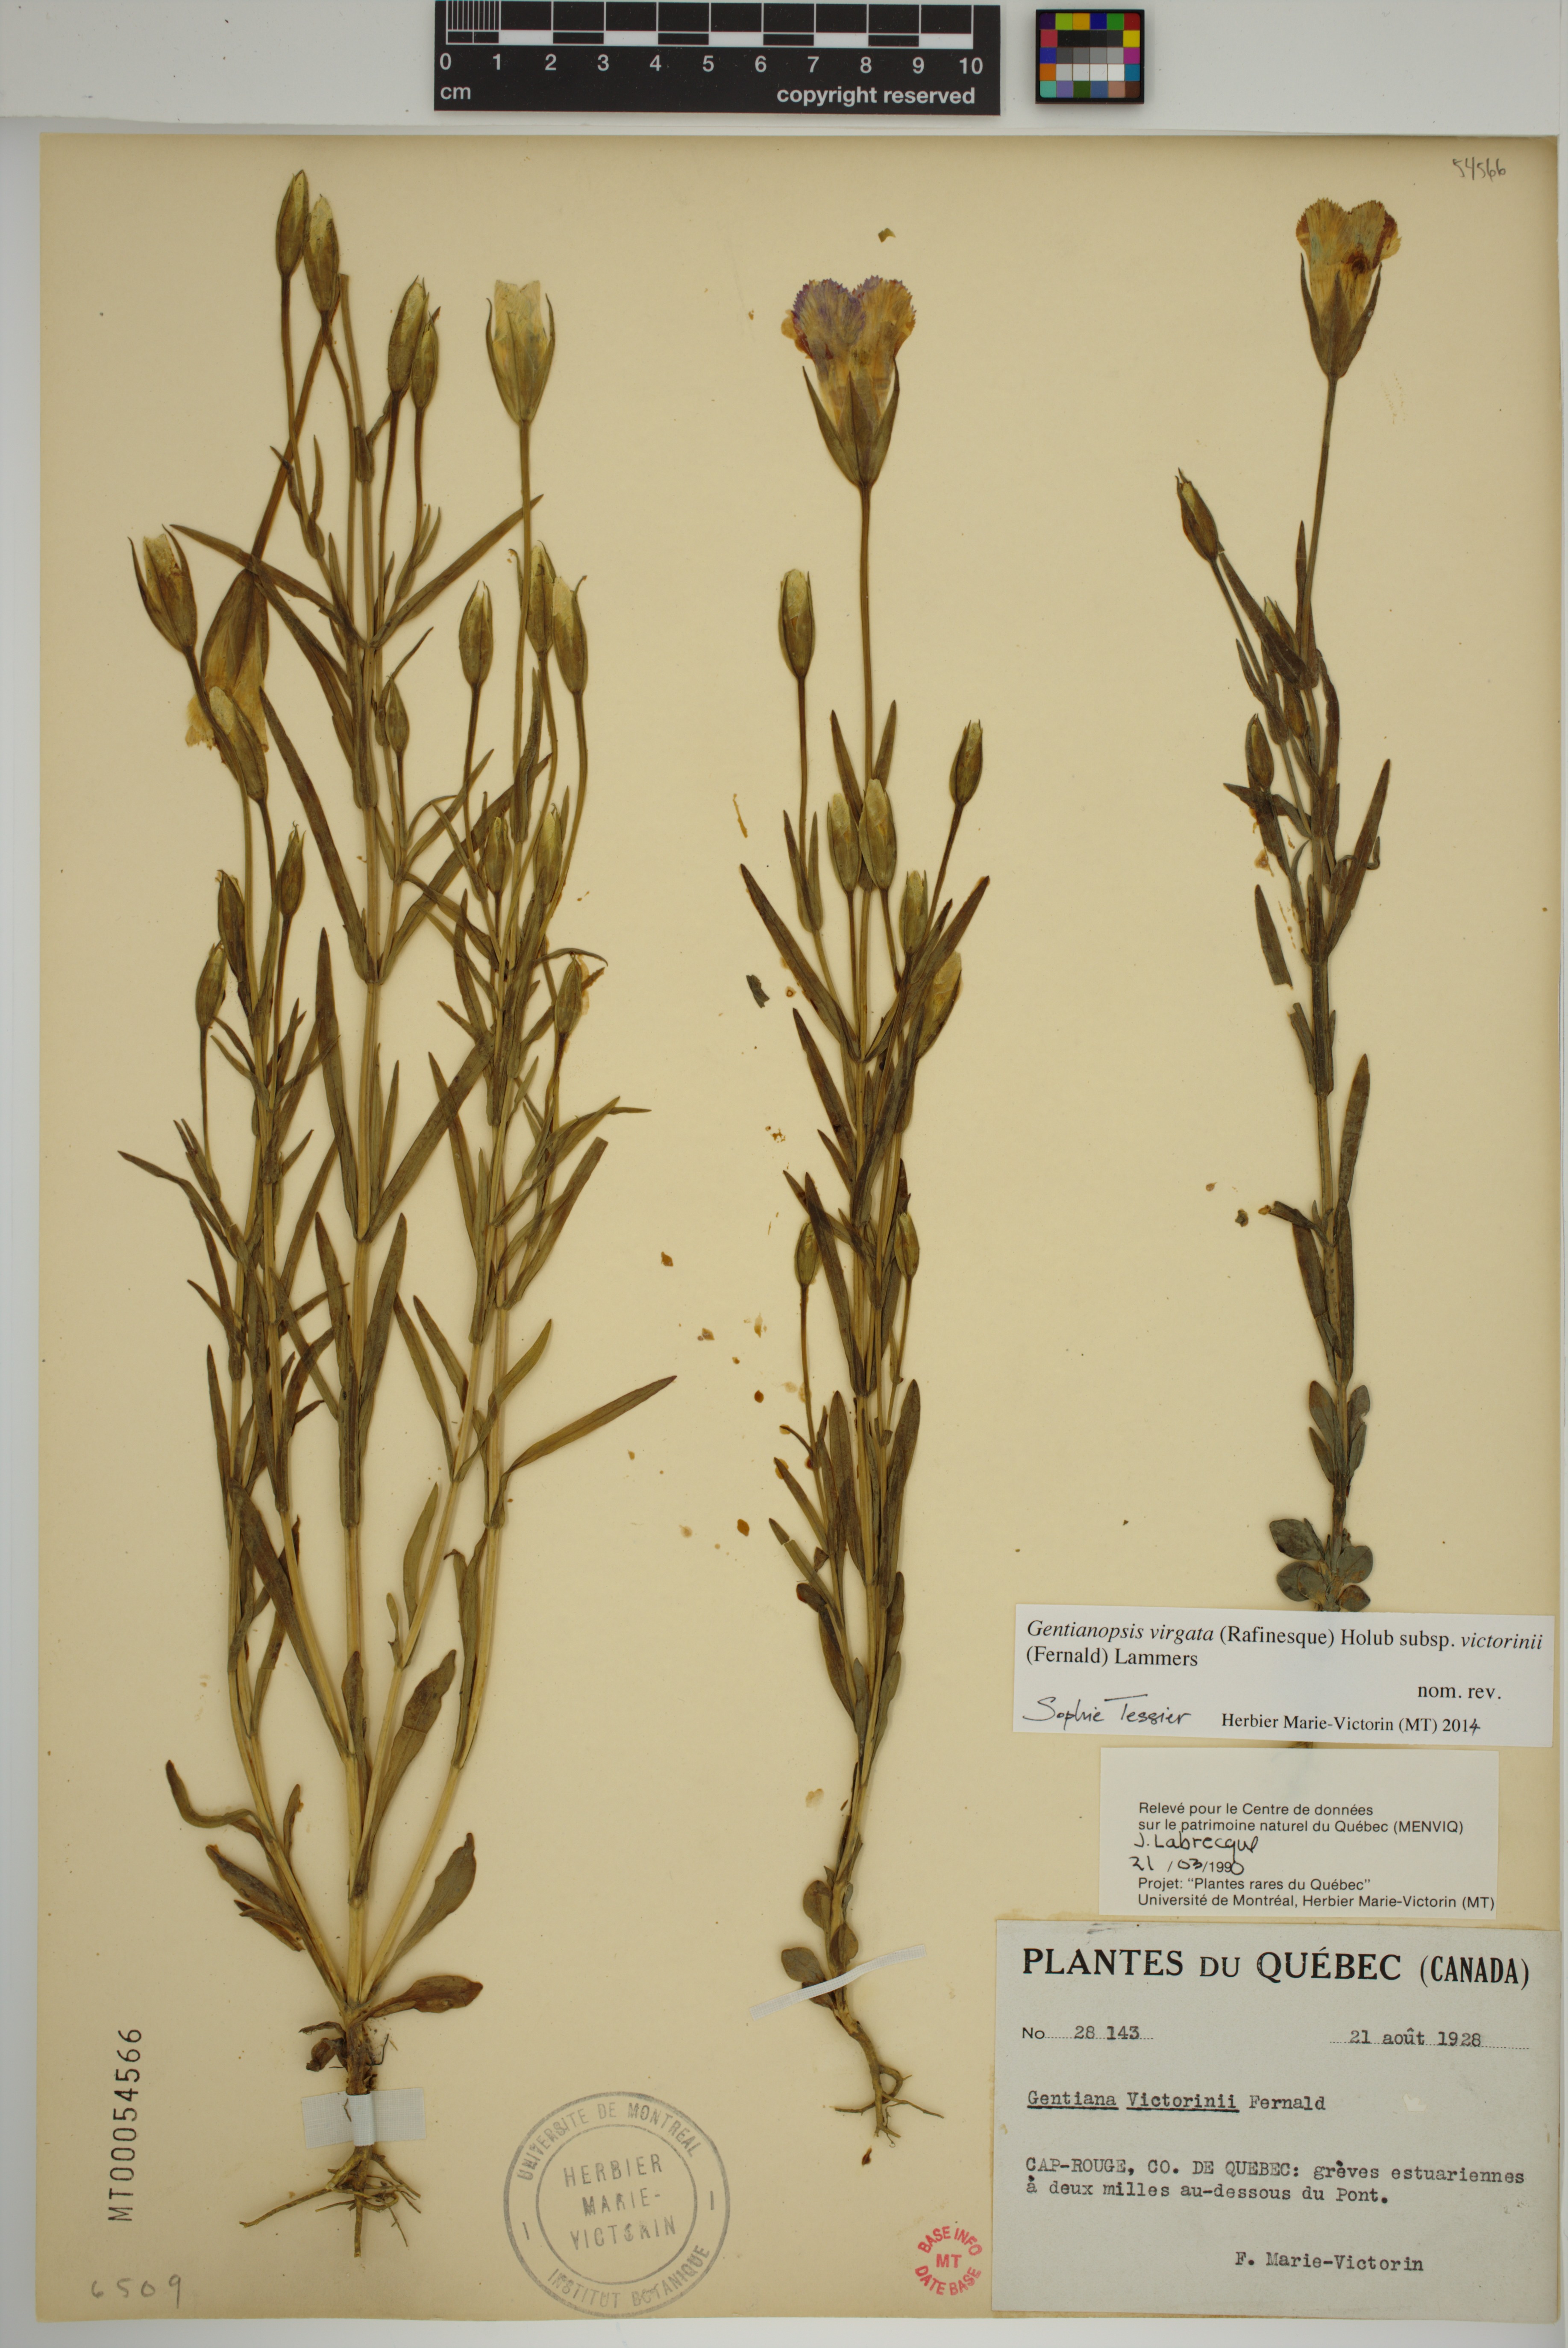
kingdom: Plantae
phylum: Tracheophyta
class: Magnoliopsida
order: Gentianales
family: Gentianaceae
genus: Gentianopsis
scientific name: Gentianopsis victorinii
